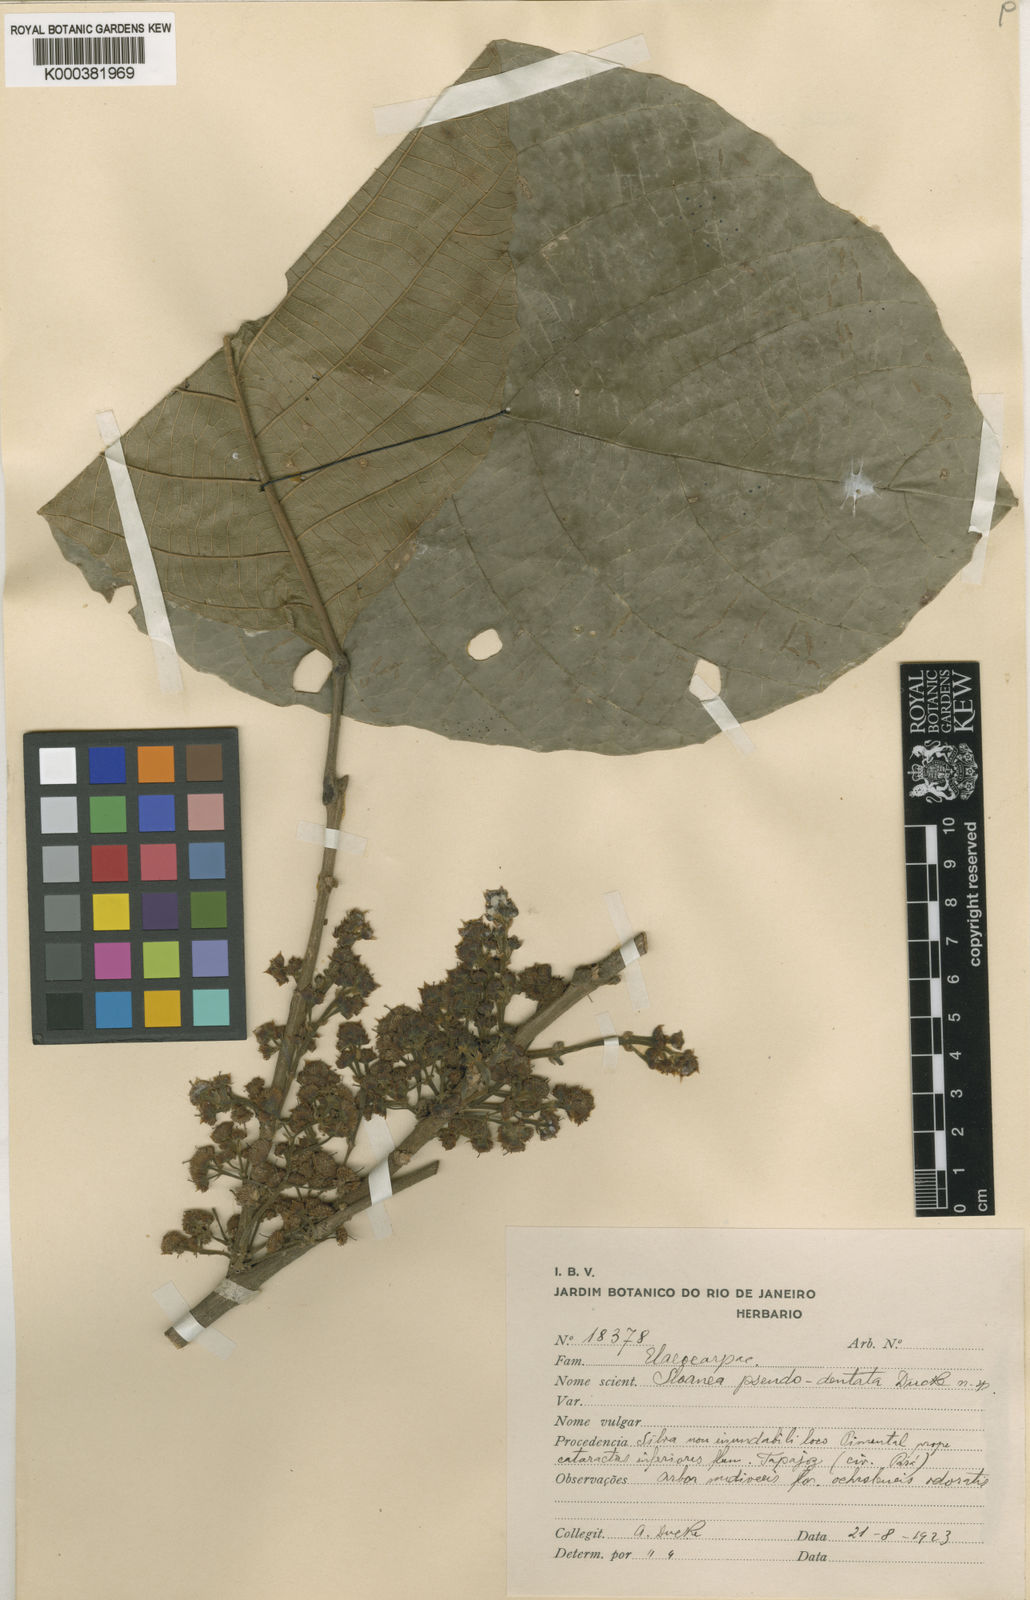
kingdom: Plantae
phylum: Tracheophyta
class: Magnoliopsida
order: Oxalidales
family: Elaeocarpaceae
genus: Sloanea
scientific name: Sloanea pubescens
